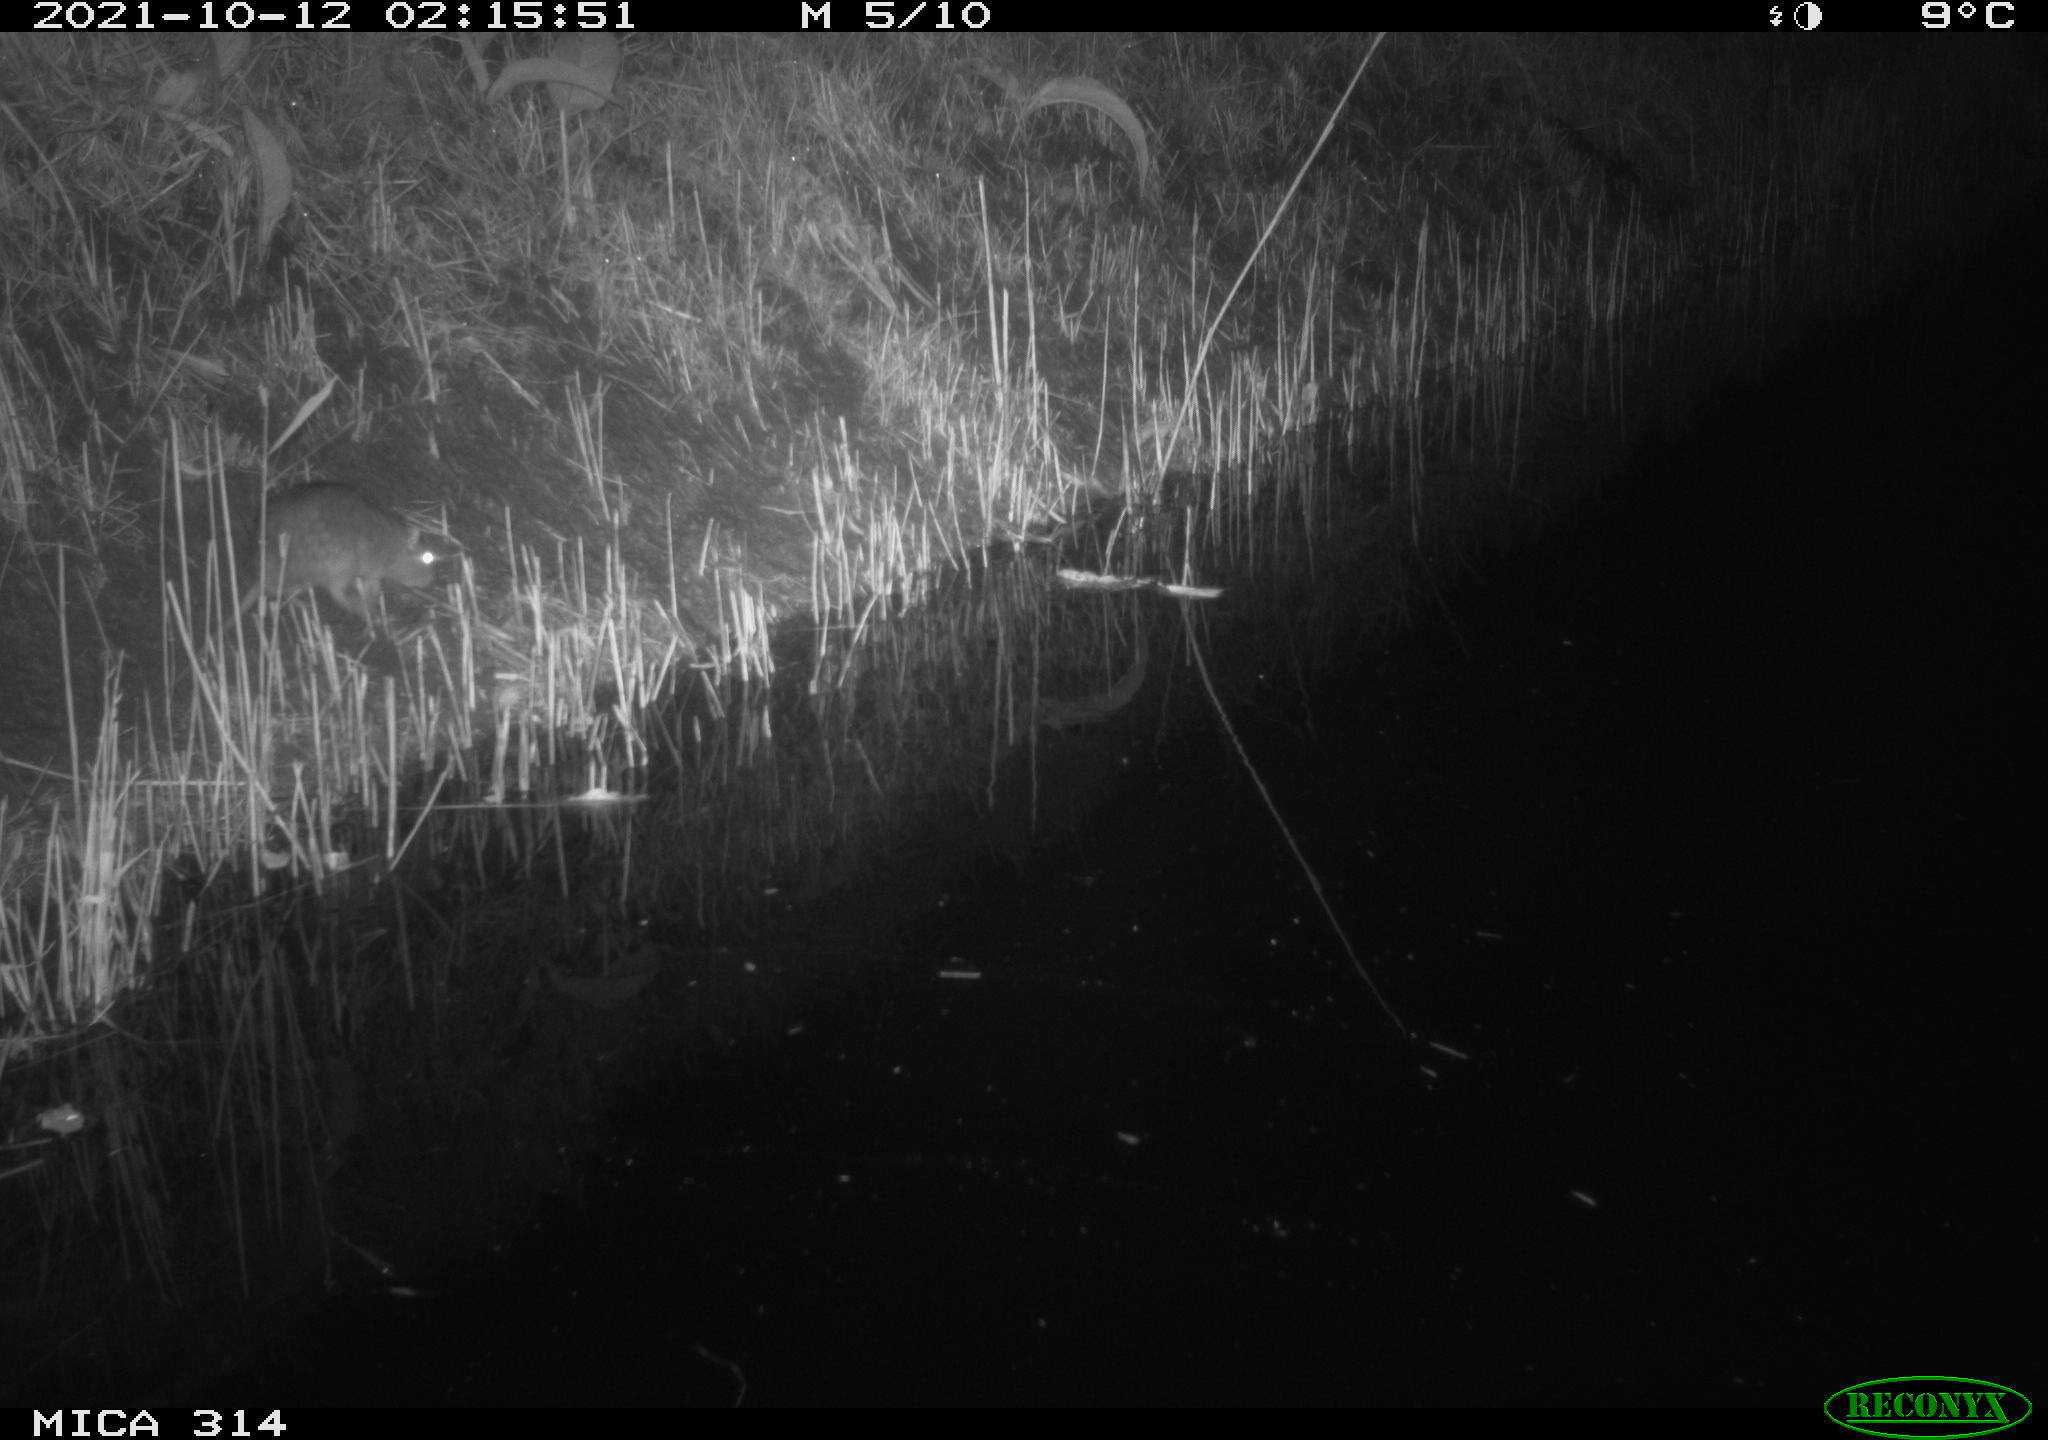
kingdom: Animalia
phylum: Chordata
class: Mammalia
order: Rodentia
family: Muridae
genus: Rattus
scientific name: Rattus norvegicus
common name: Brown rat
